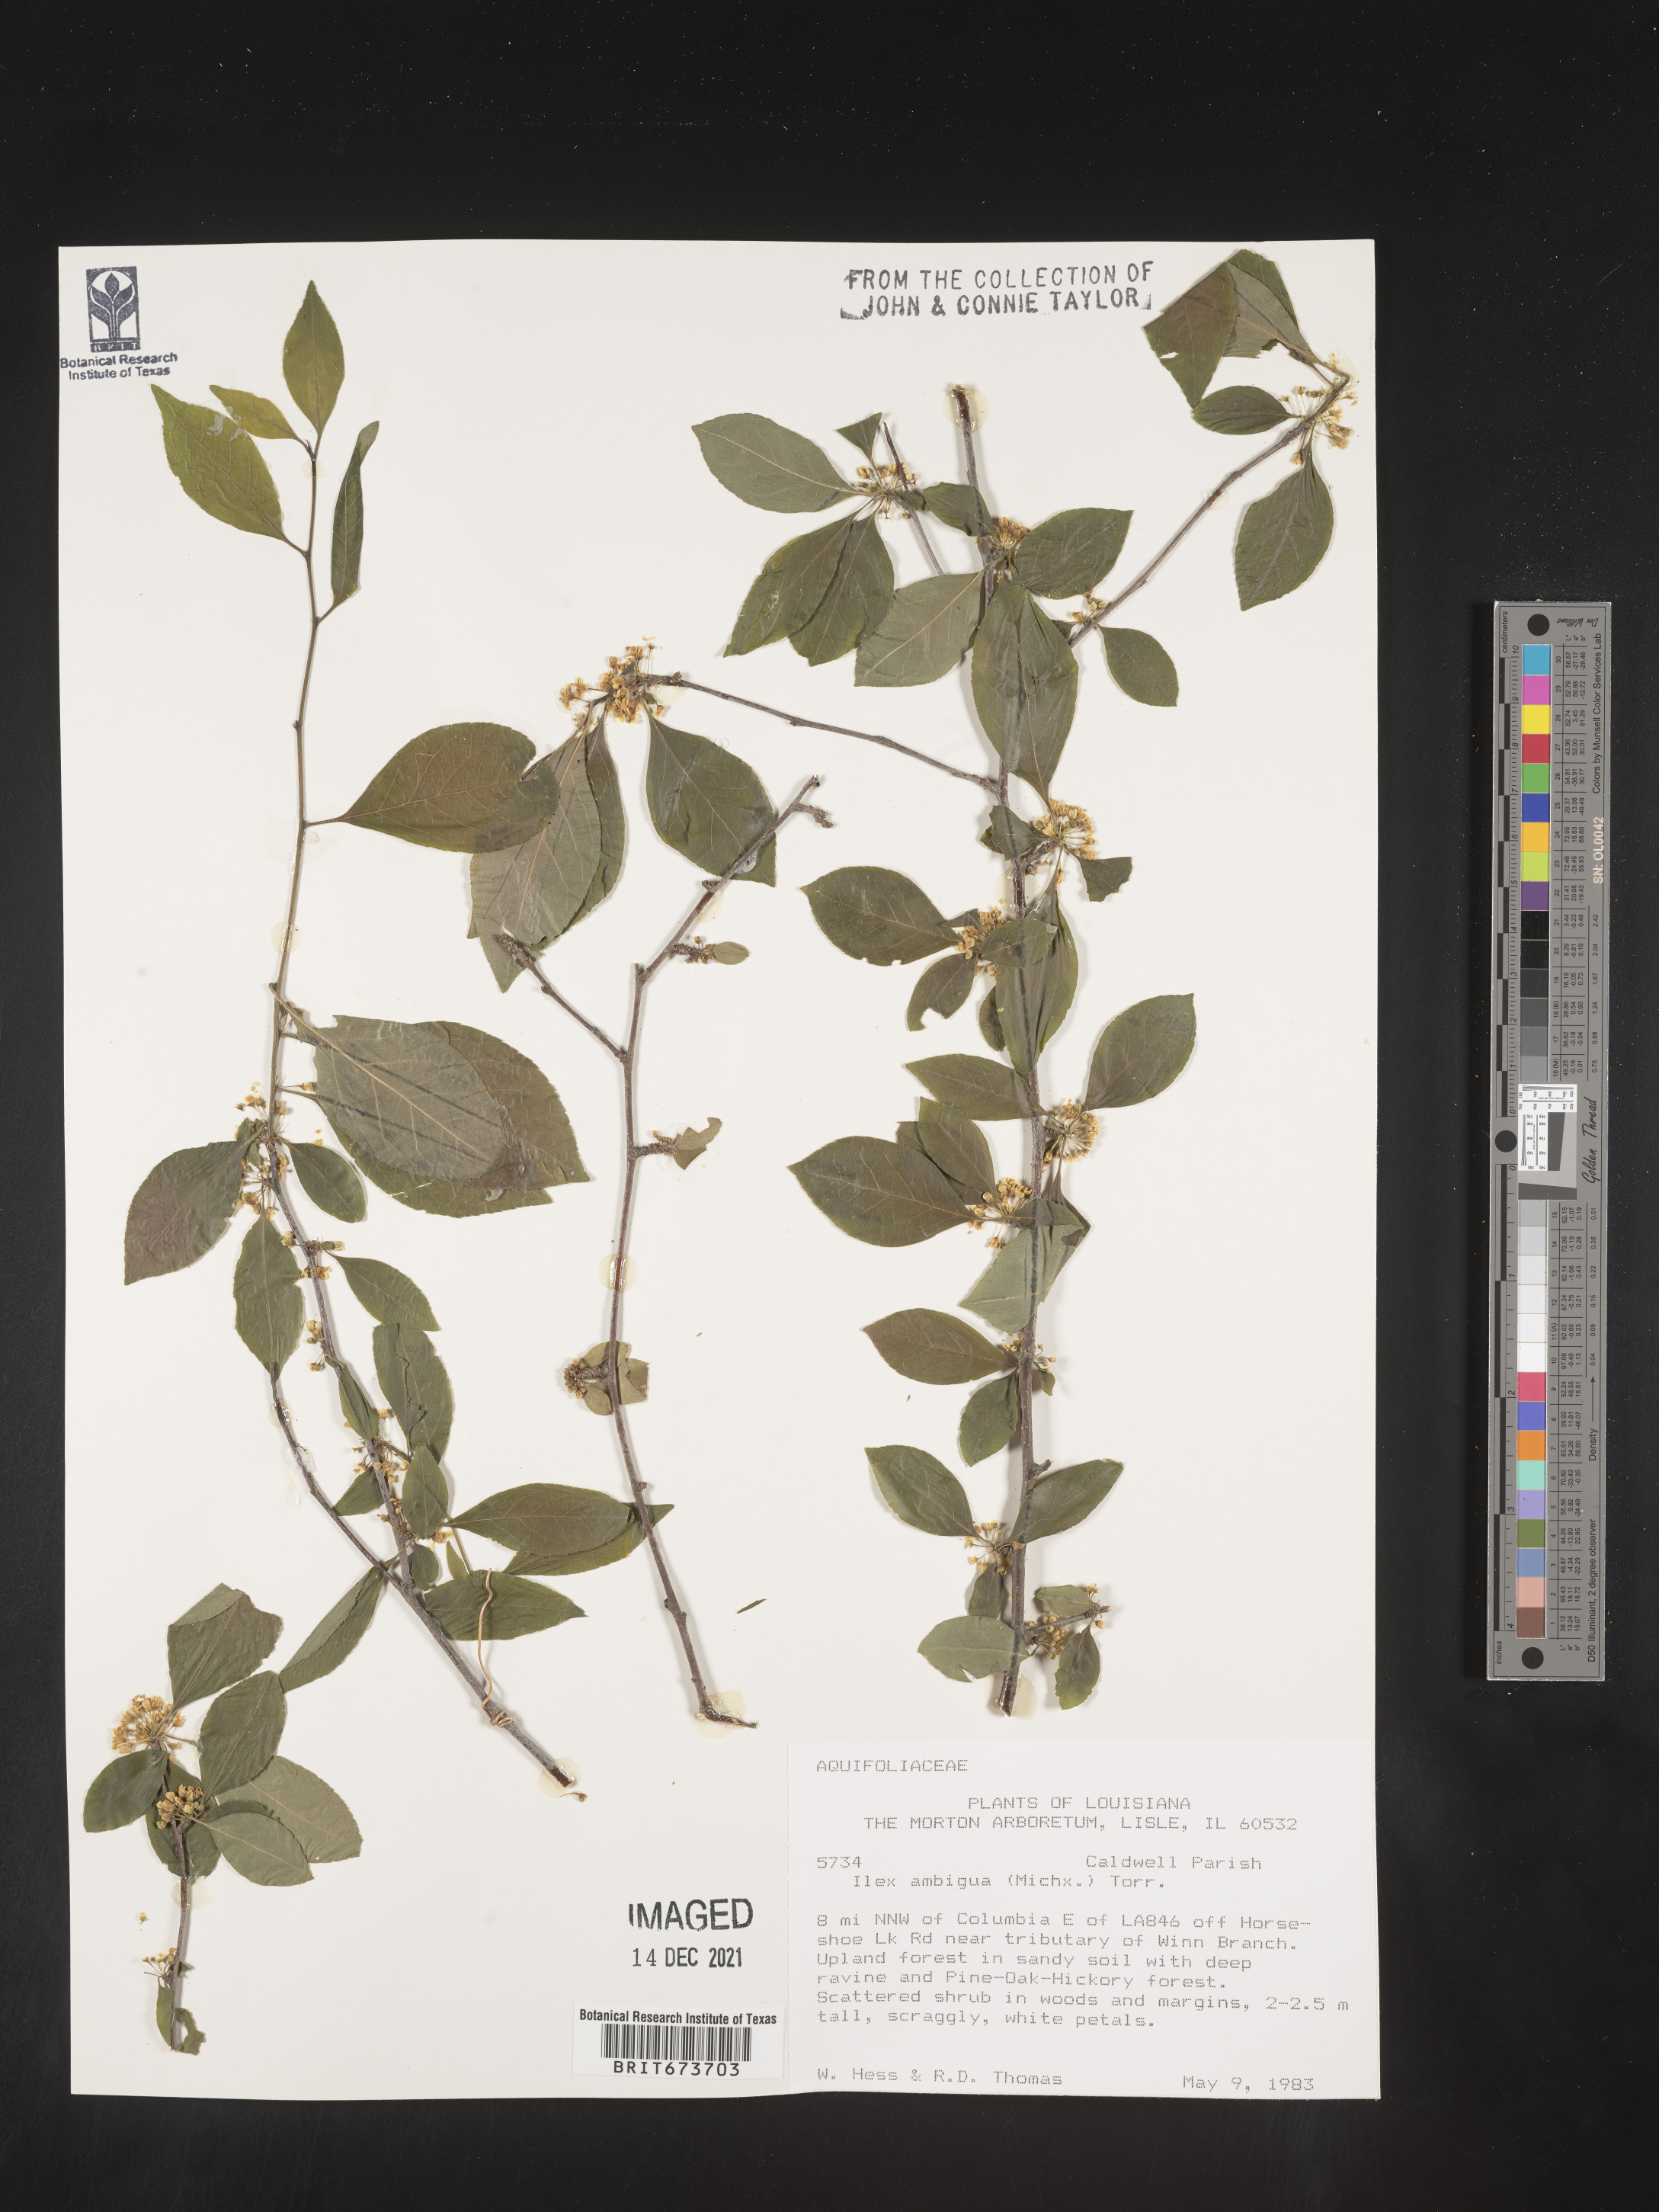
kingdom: Plantae
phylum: Tracheophyta
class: Magnoliopsida
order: Aquifoliales
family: Aquifoliaceae
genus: Ilex
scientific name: Ilex ambigua
